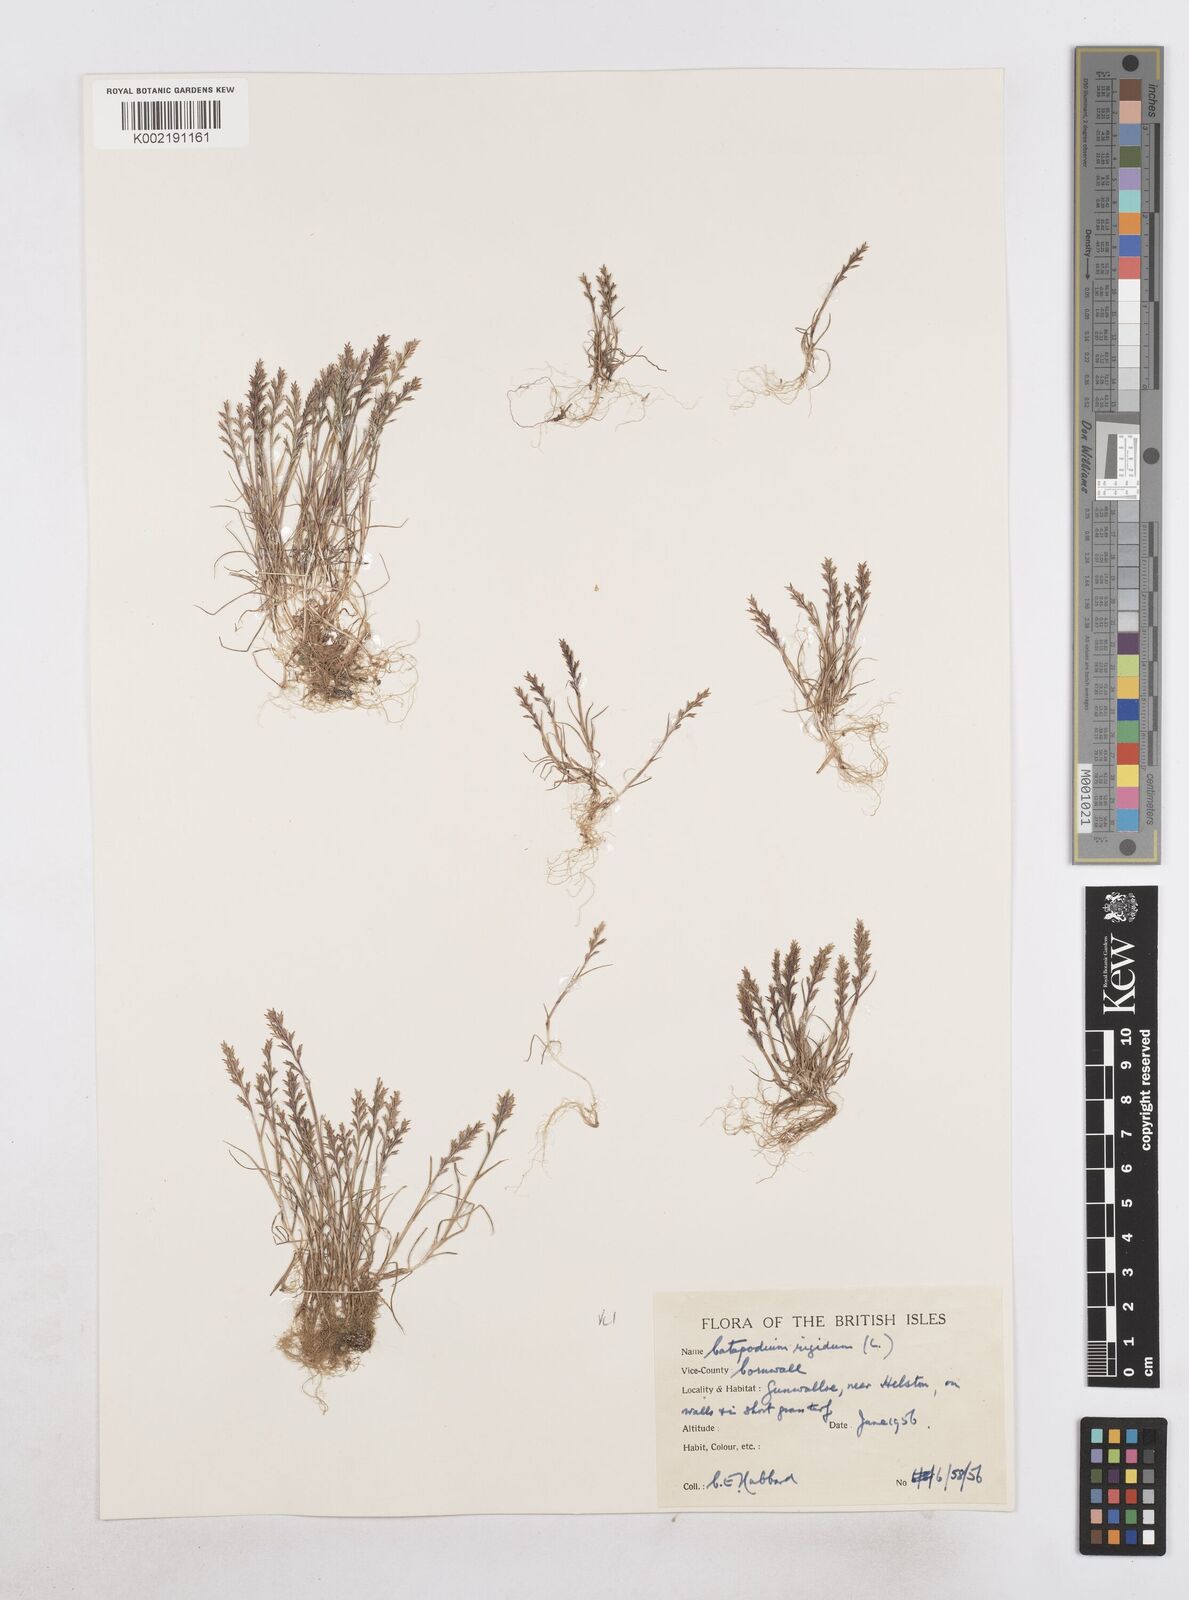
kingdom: Plantae
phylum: Tracheophyta
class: Liliopsida
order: Poales
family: Poaceae
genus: Catapodium
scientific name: Catapodium rigidum
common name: Fern-grass
